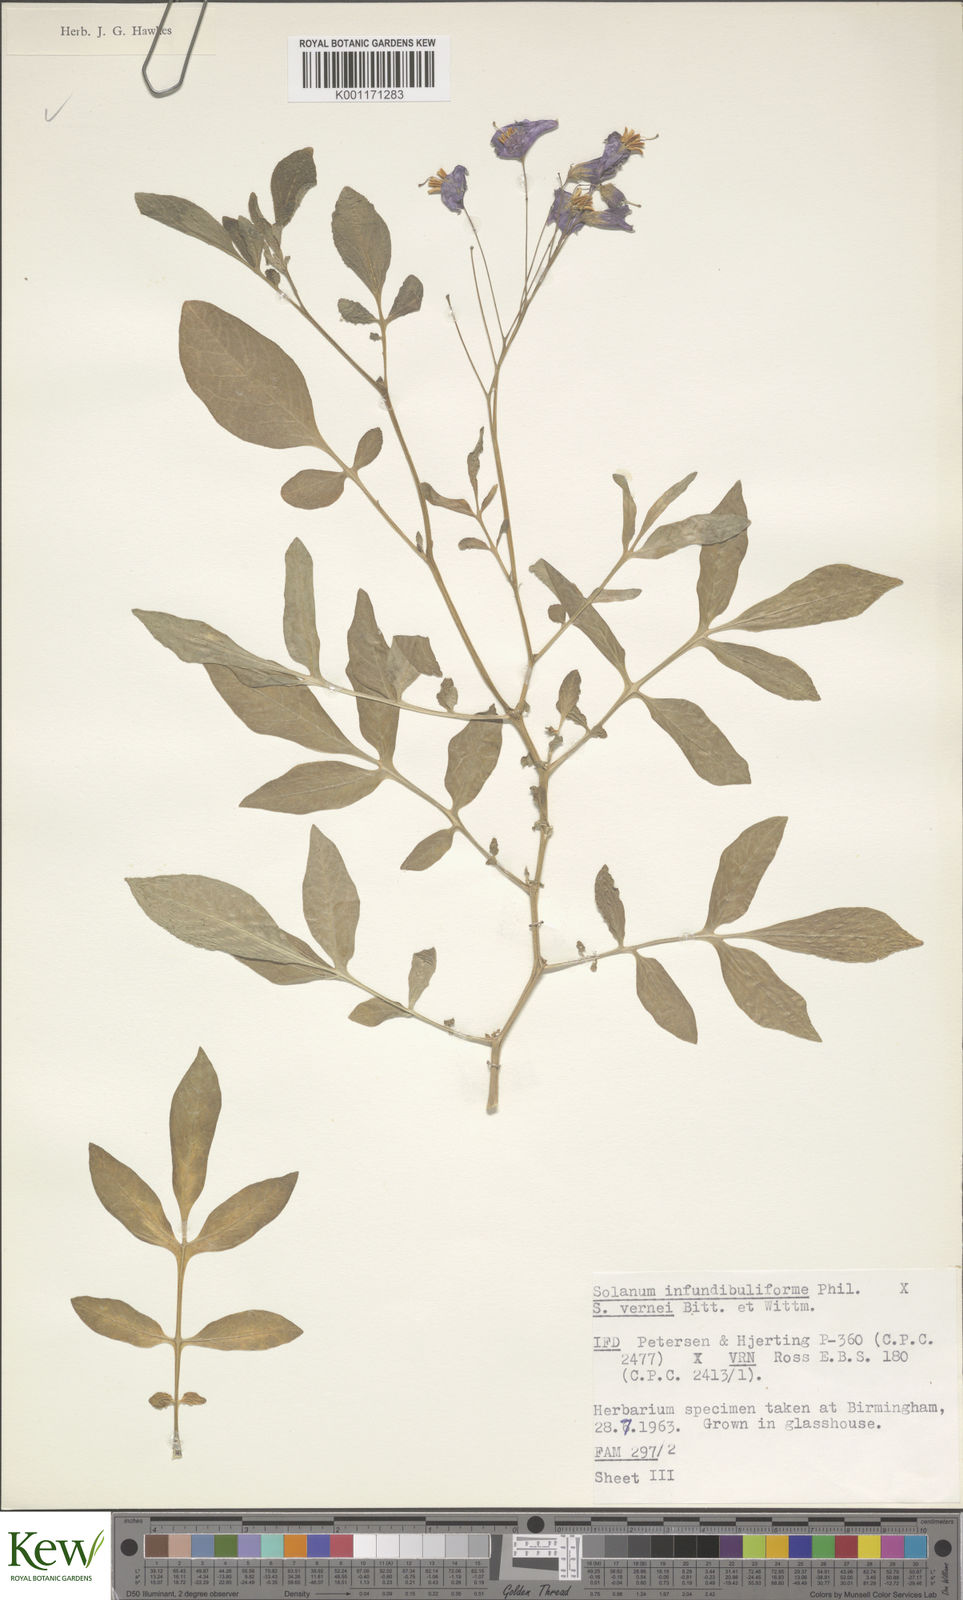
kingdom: Plantae
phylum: Tracheophyta
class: Magnoliopsida
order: Solanales
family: Solanaceae
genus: Solanum
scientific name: Solanum infundibuliforme
